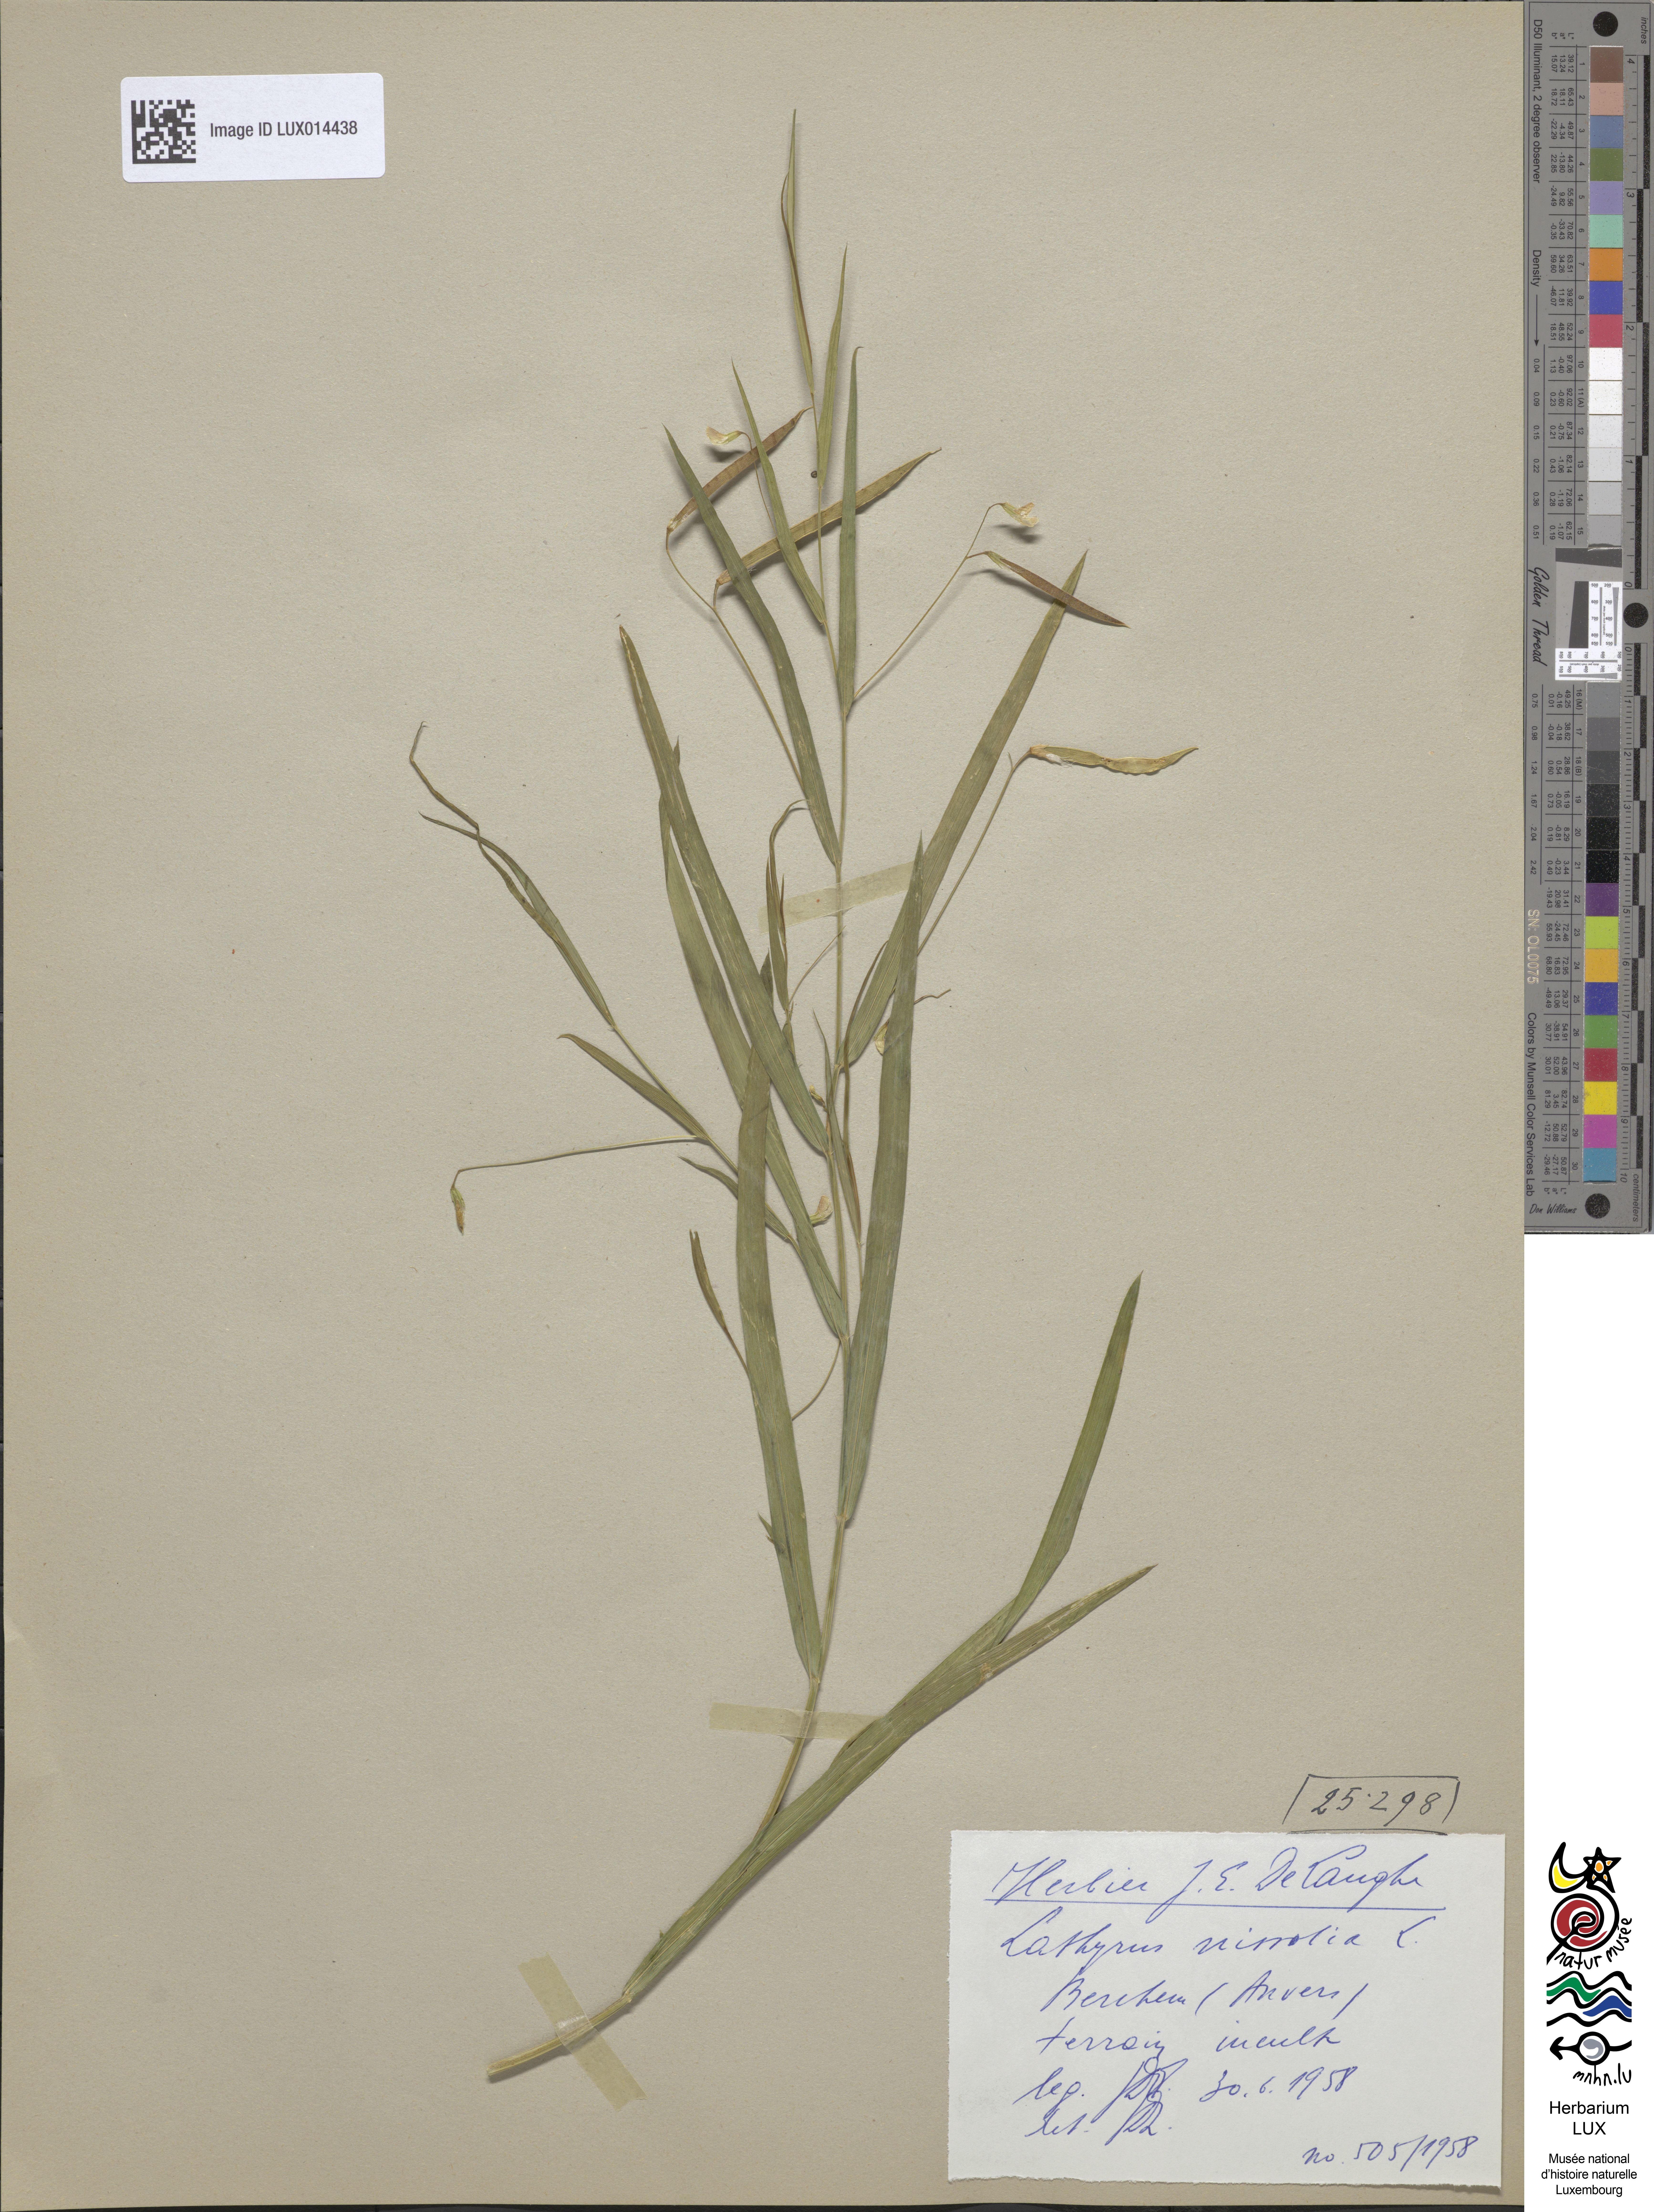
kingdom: Plantae
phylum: Tracheophyta
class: Magnoliopsida
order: Fabales
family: Fabaceae
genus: Lathyrus
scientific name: Lathyrus nissolia
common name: Grass vetchling
